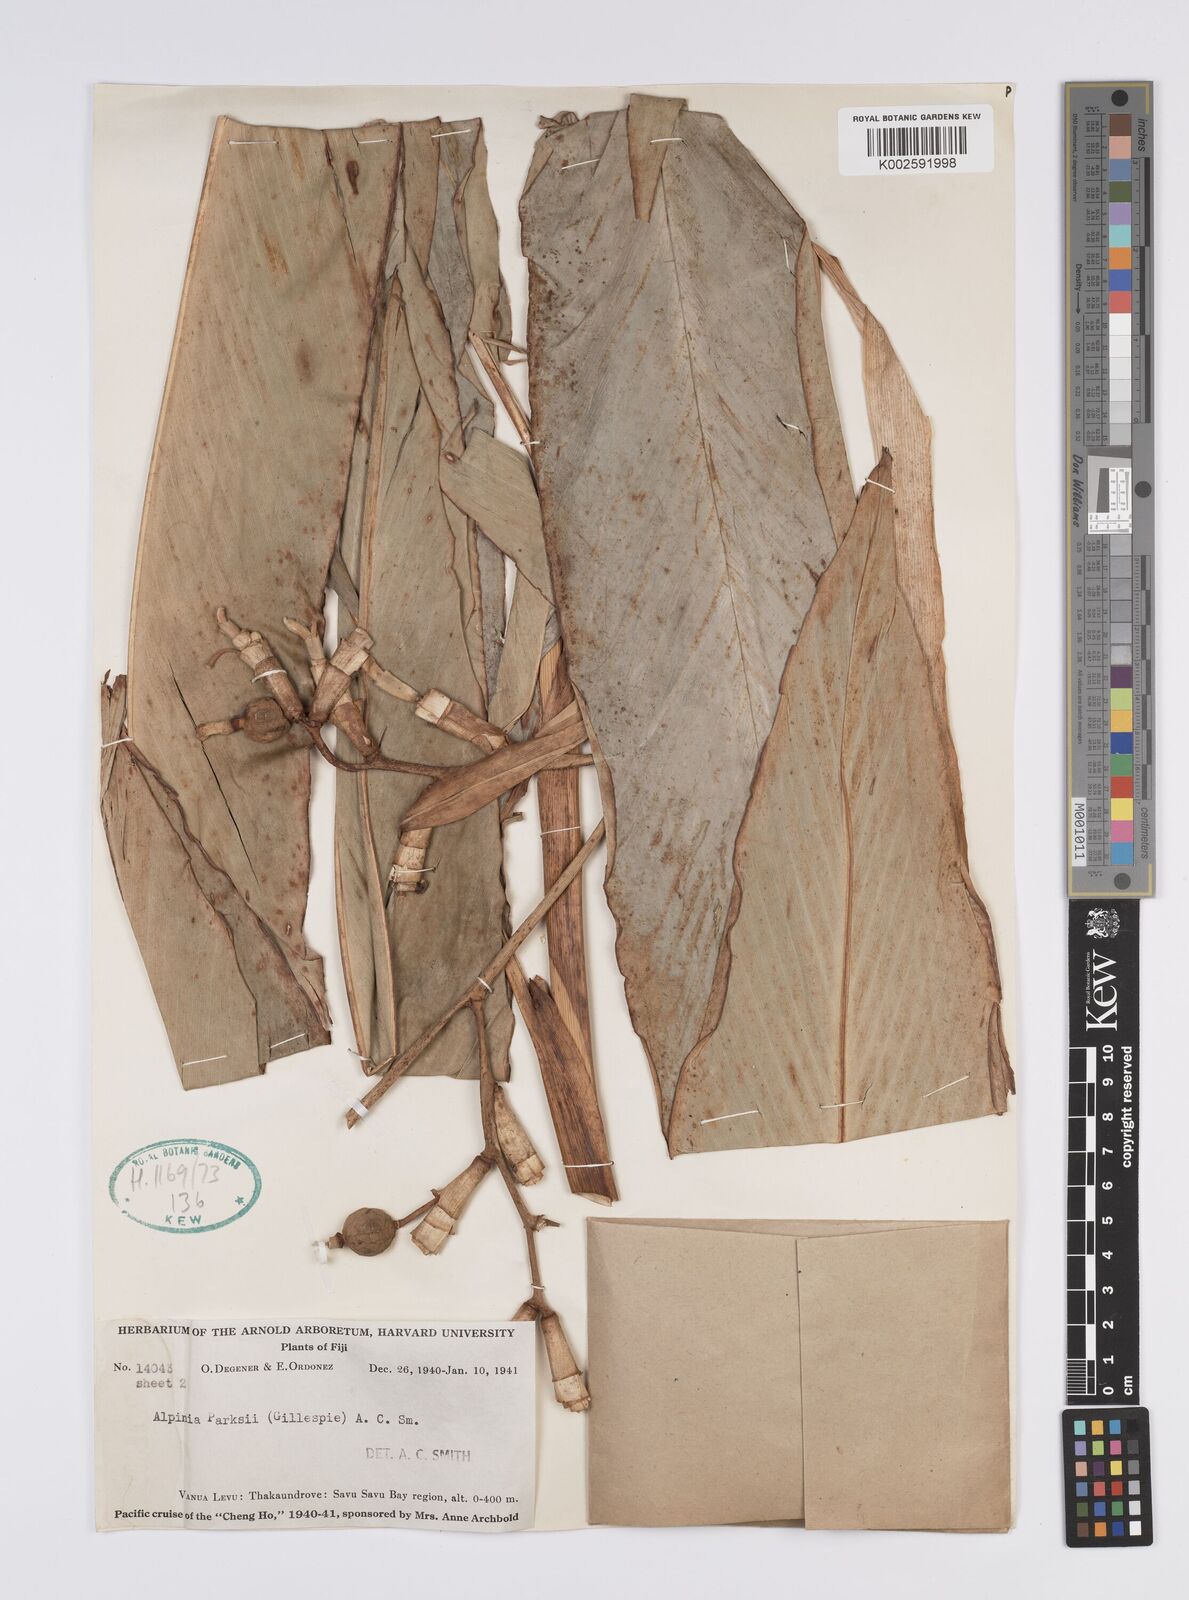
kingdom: Plantae
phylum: Tracheophyta
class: Liliopsida
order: Zingiberales
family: Zingiberaceae
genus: Alpinia
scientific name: Alpinia parksii
